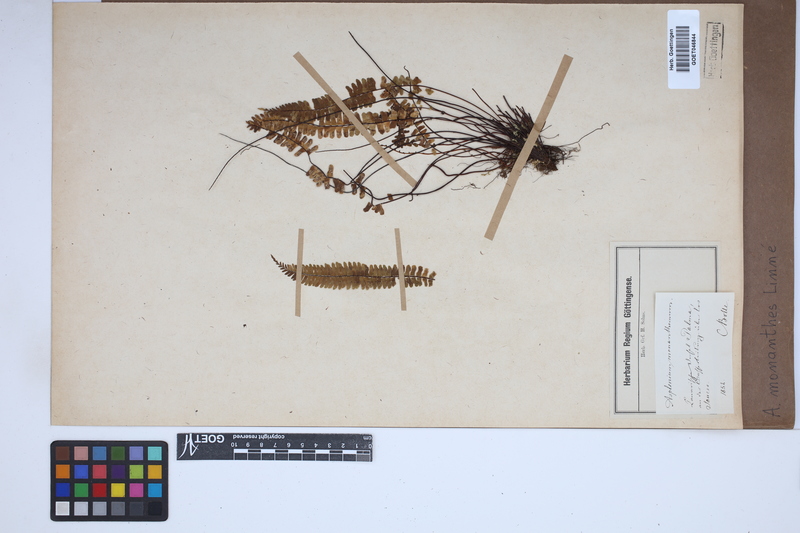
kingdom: Plantae
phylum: Tracheophyta
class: Polypodiopsida
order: Polypodiales
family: Aspleniaceae
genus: Asplenium
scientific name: Asplenium monanthes
